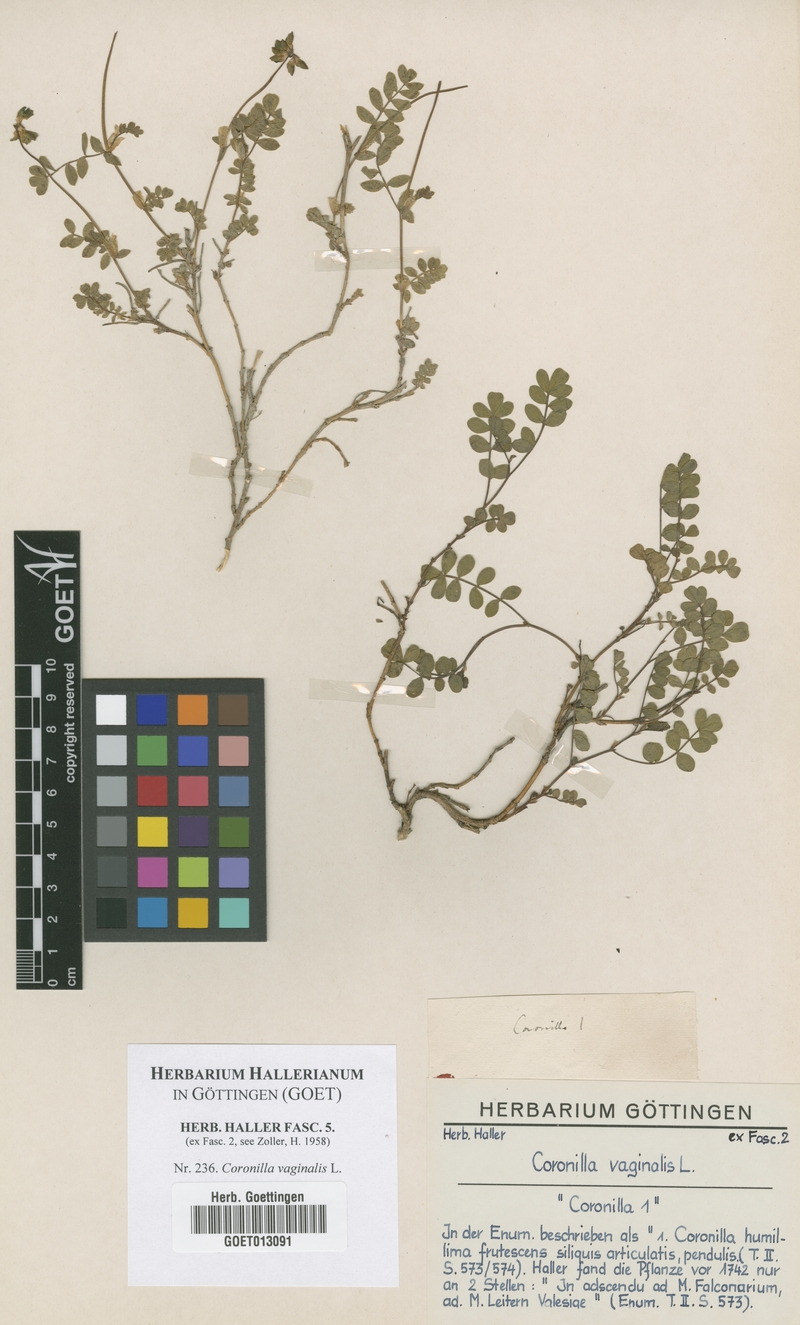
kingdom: Plantae
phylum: Tracheophyta
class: Magnoliopsida
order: Fabales
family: Fabaceae
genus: Coronilla
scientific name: Coronilla vaginalis
